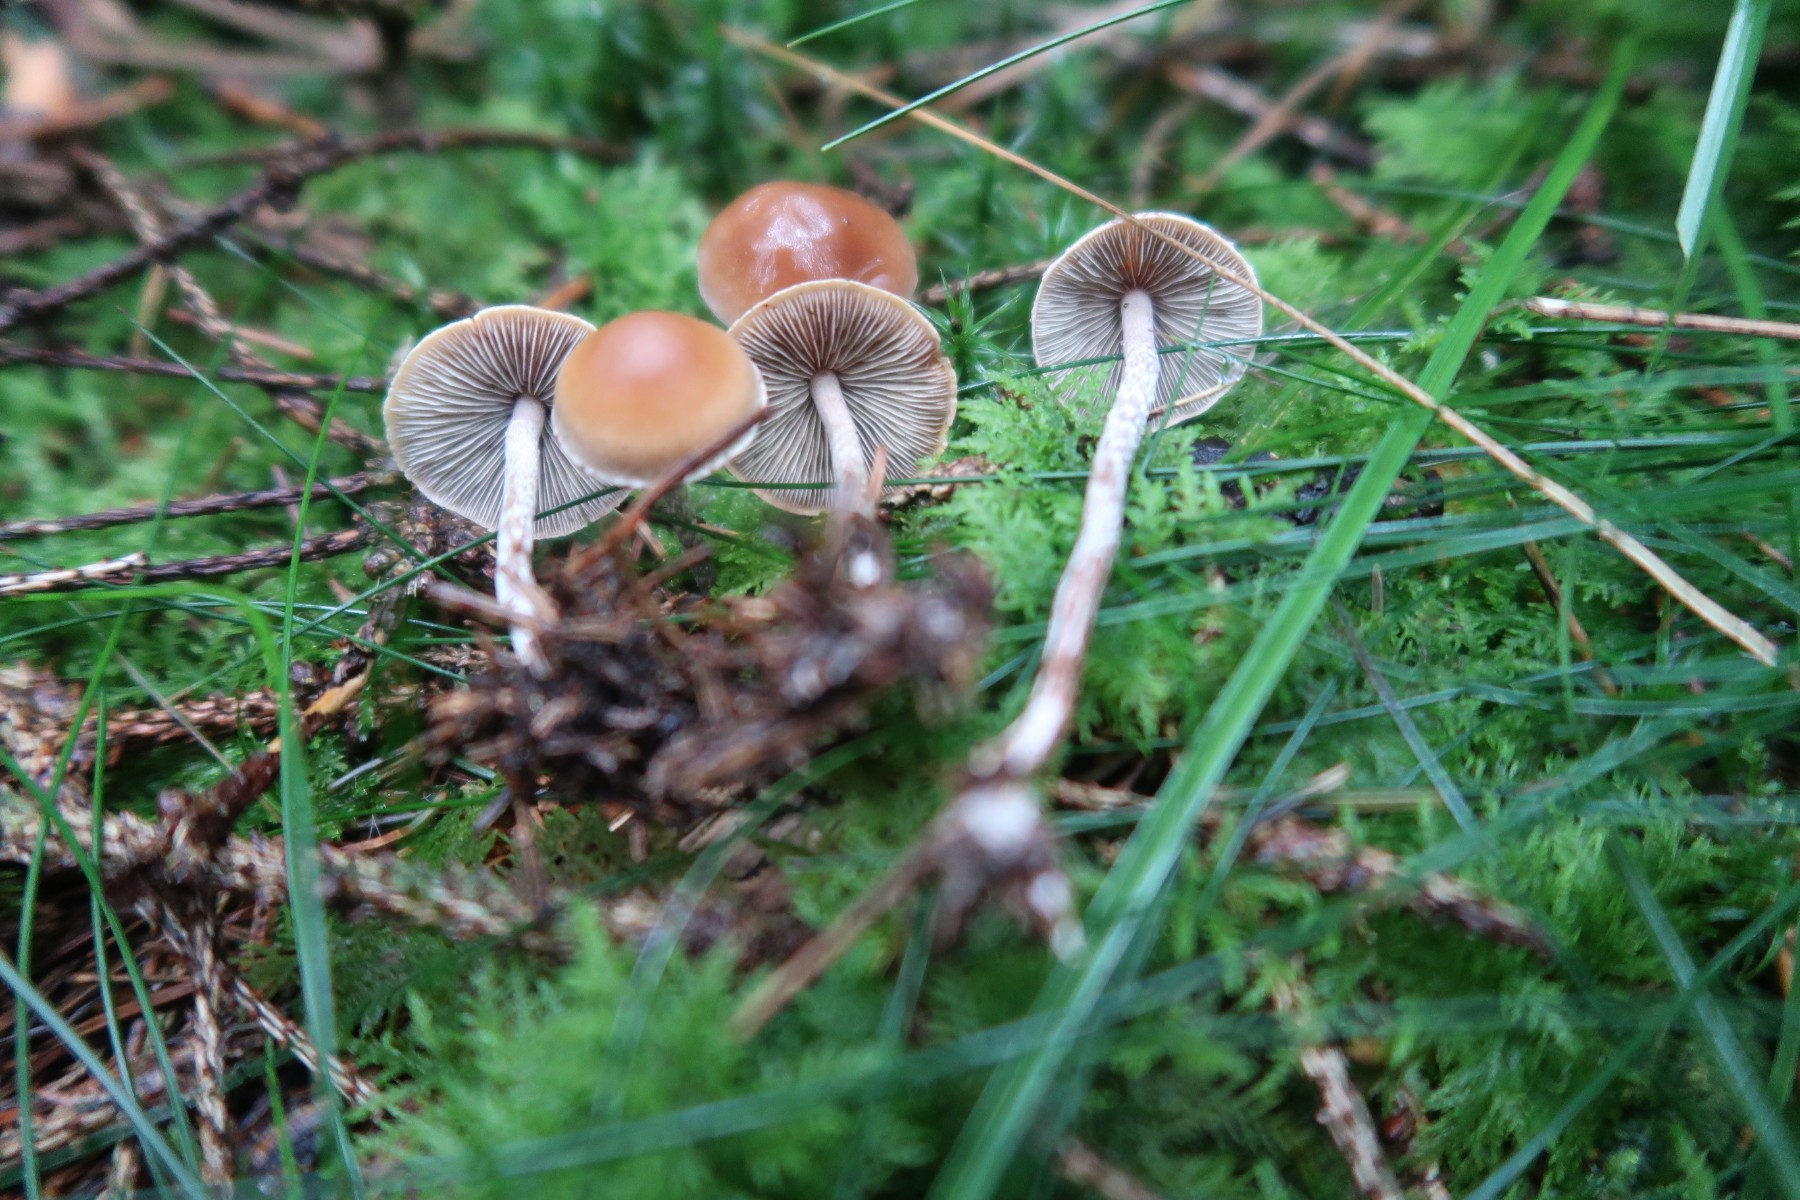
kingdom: Fungi
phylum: Basidiomycota
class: Agaricomycetes
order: Agaricales
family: Strophariaceae
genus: Hypholoma
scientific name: Hypholoma marginatum
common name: enlig svovlhat
